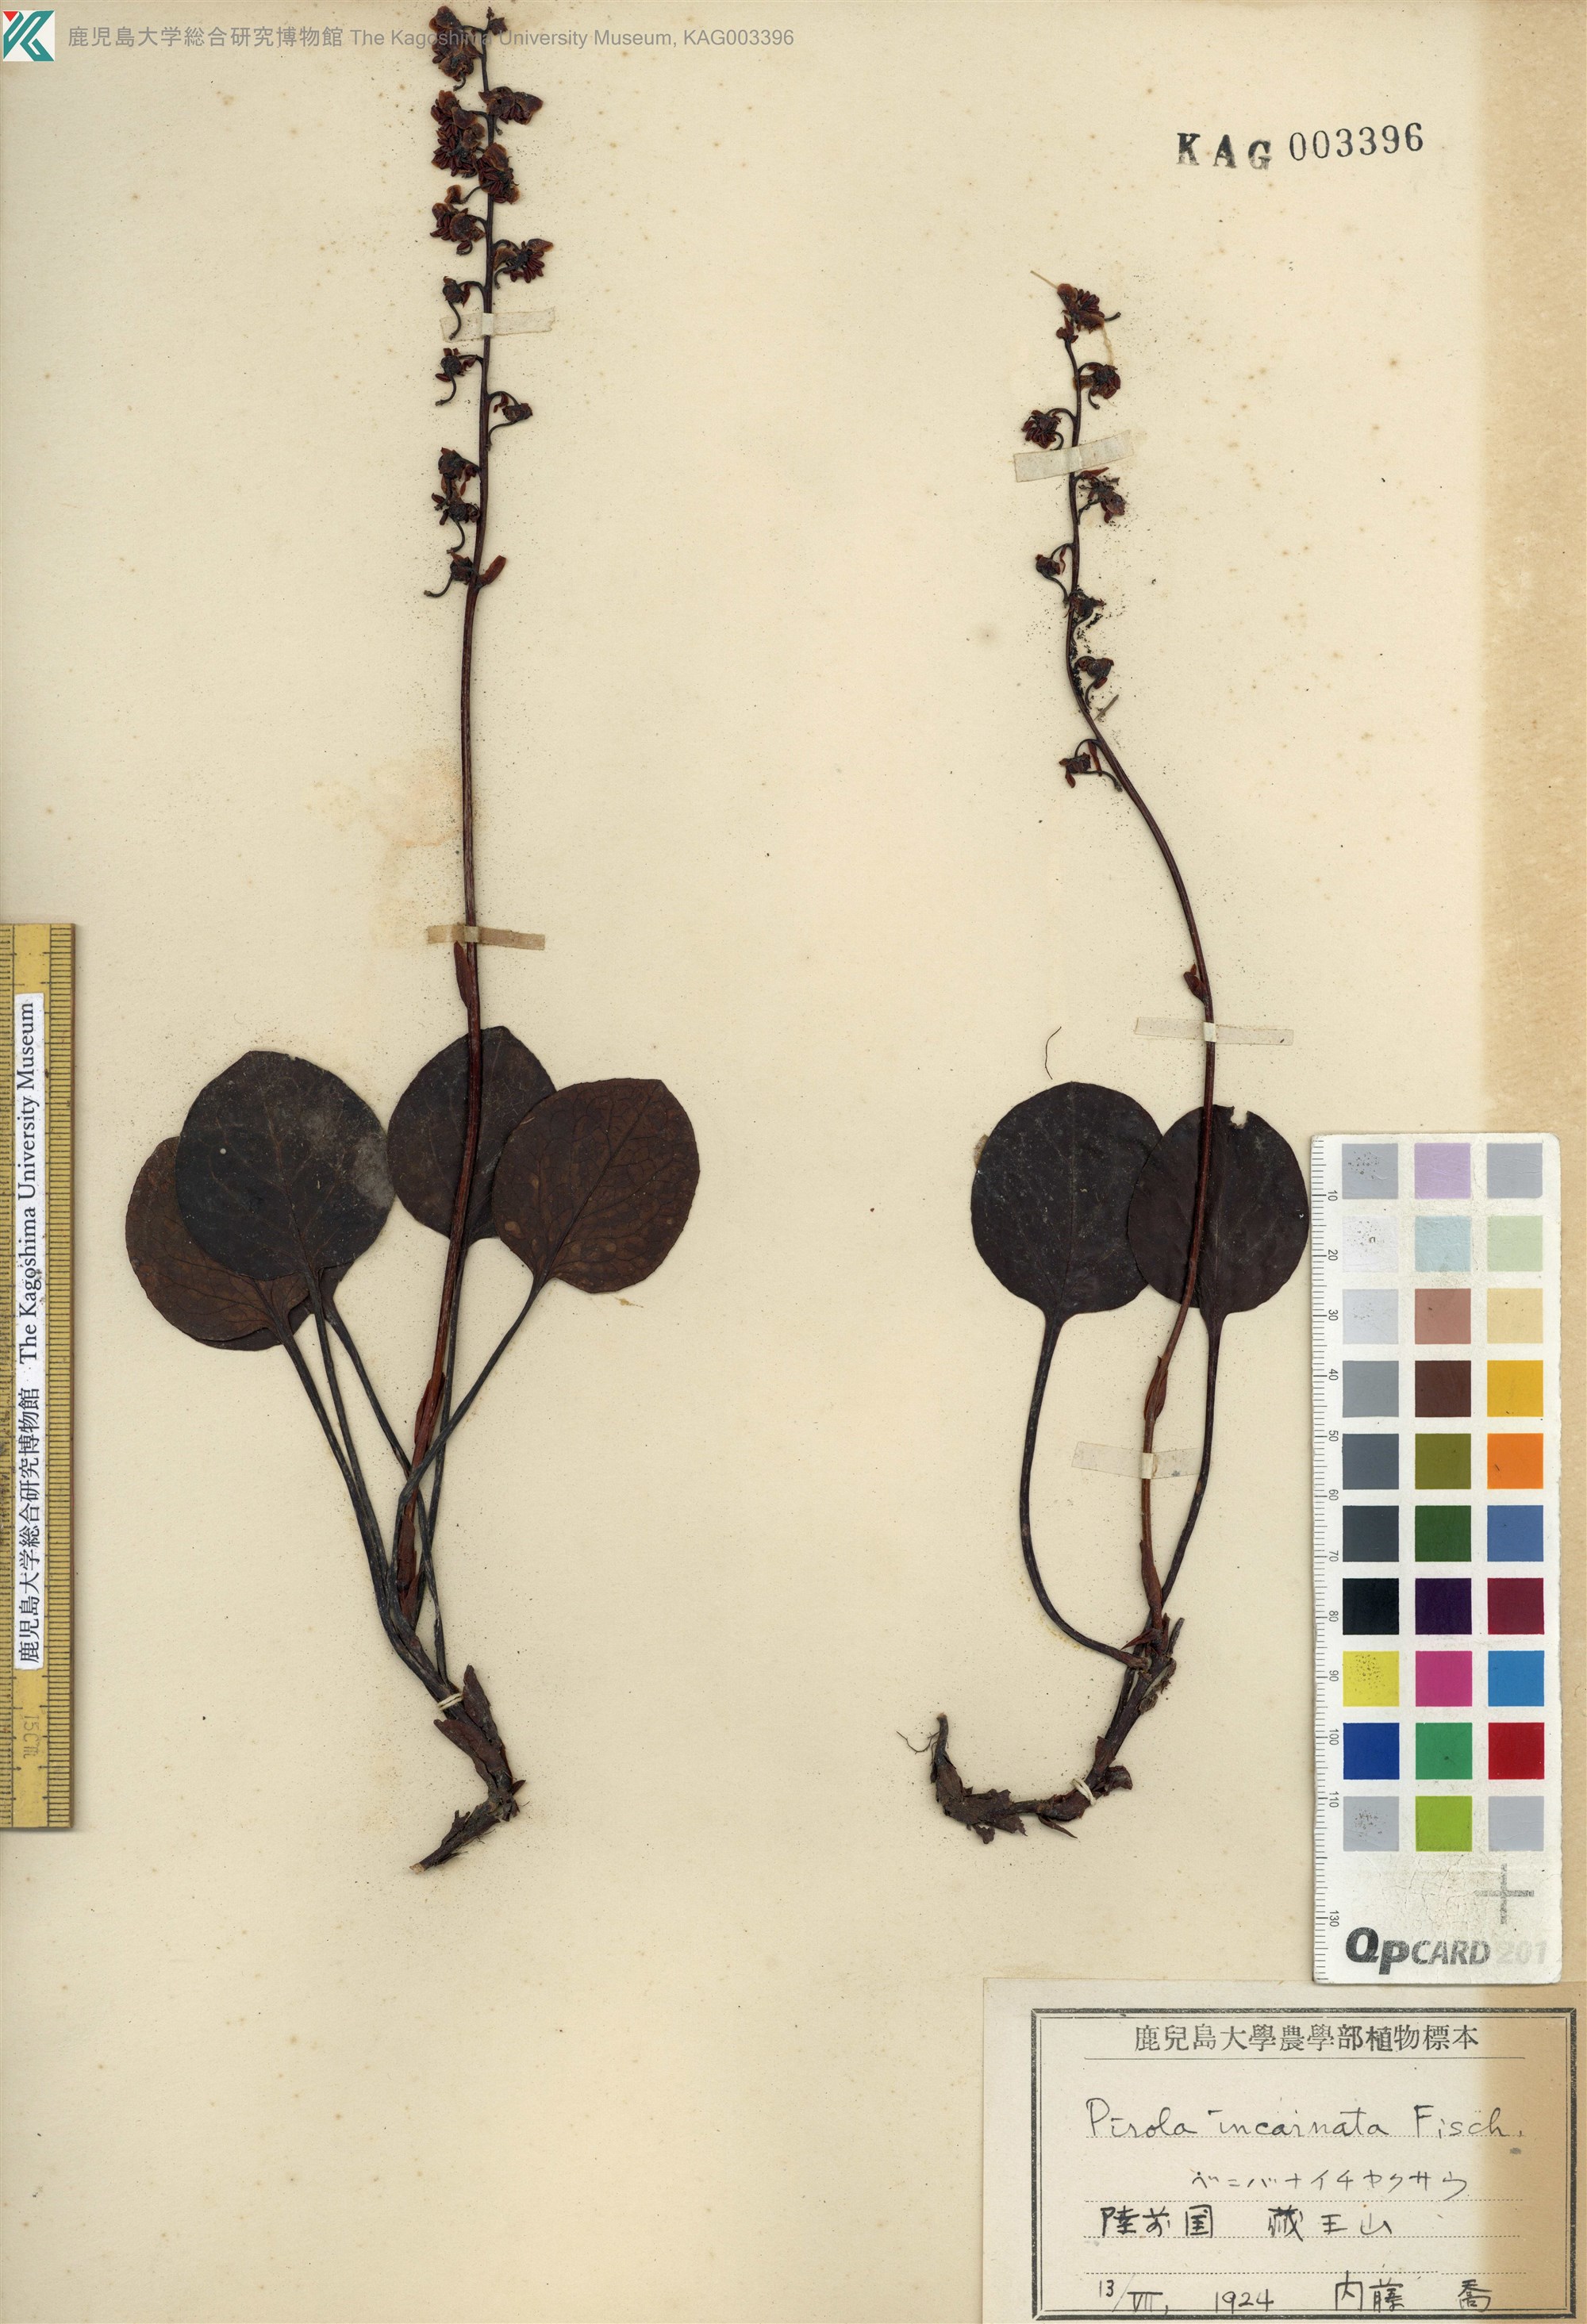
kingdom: Plantae
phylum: Tracheophyta
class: Magnoliopsida
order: Ericales
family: Ericaceae
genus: Pyrola
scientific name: Pyrola asarifolia
